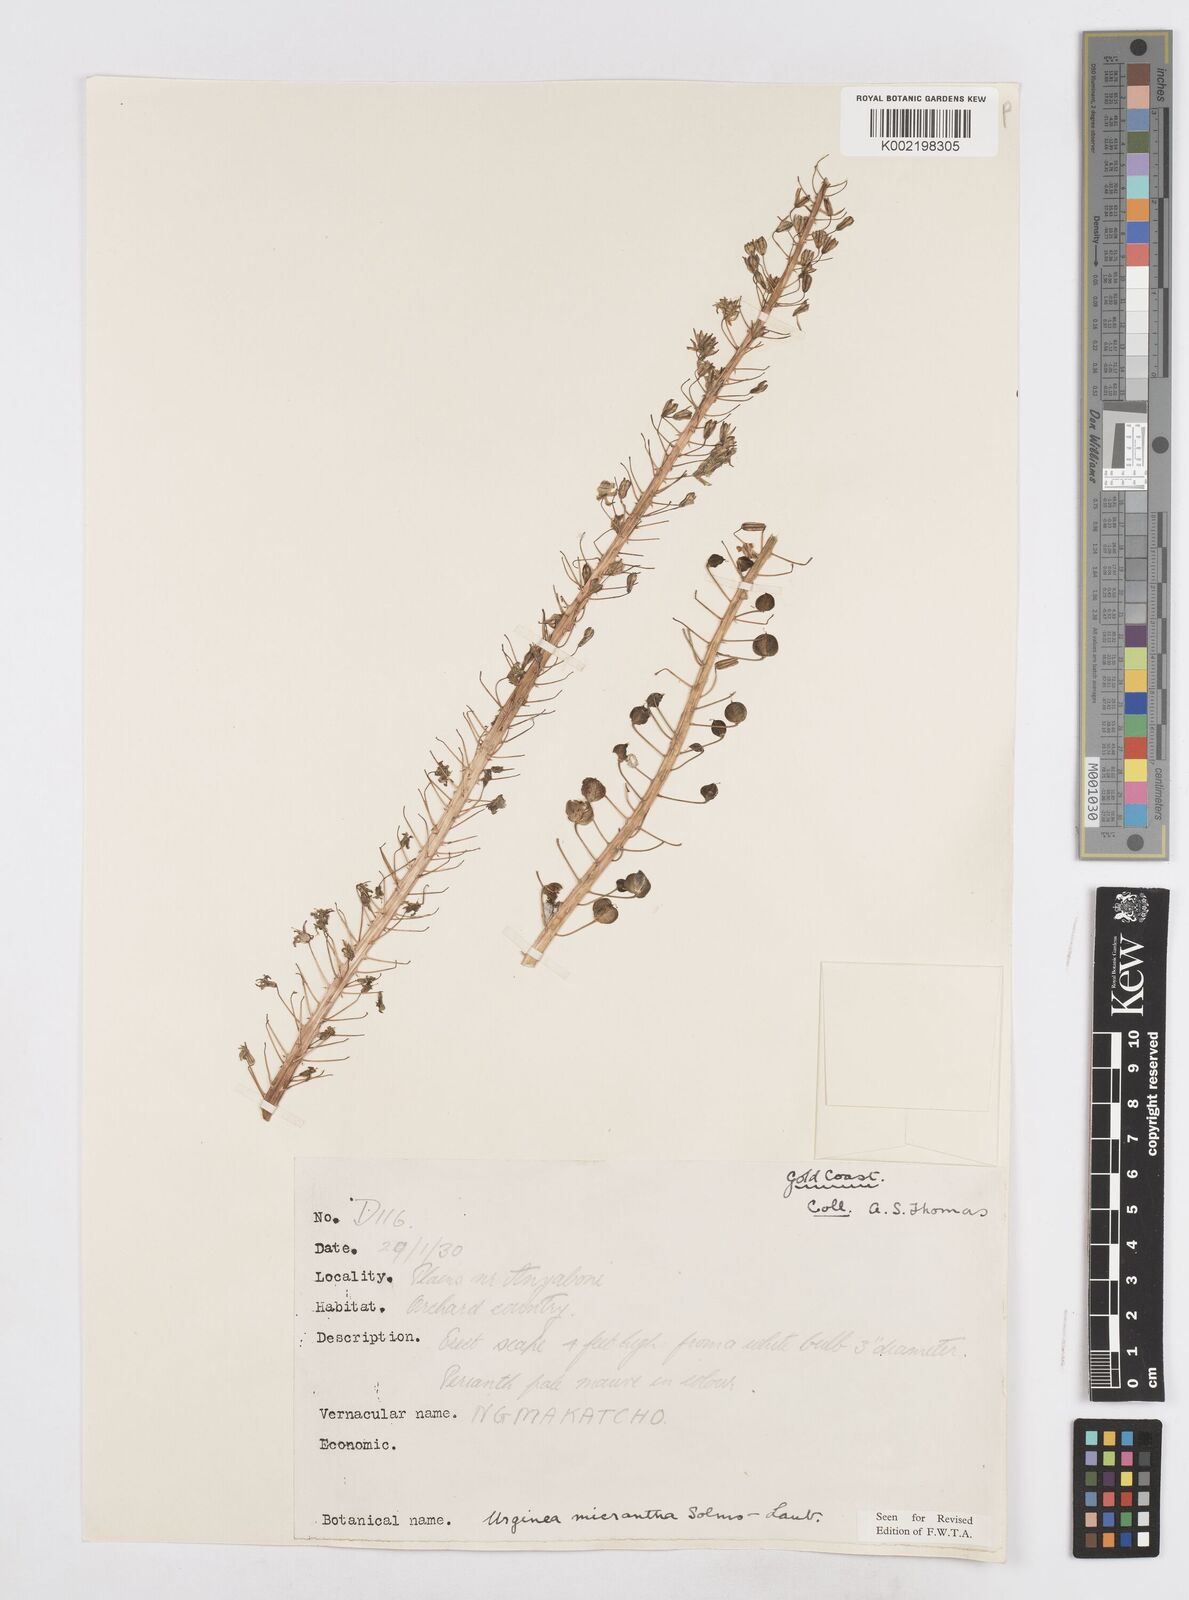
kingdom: Plantae
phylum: Tracheophyta
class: Liliopsida
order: Asparagales
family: Asparagaceae
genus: Drimia
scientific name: Drimia altissima
